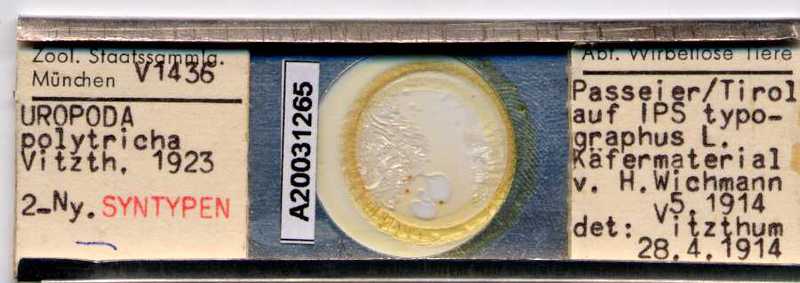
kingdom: Animalia
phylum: Arthropoda
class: Arachnida
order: Mesostigmata
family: Trematuridae
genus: Trichouropoda
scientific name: Trichouropoda polytricha
